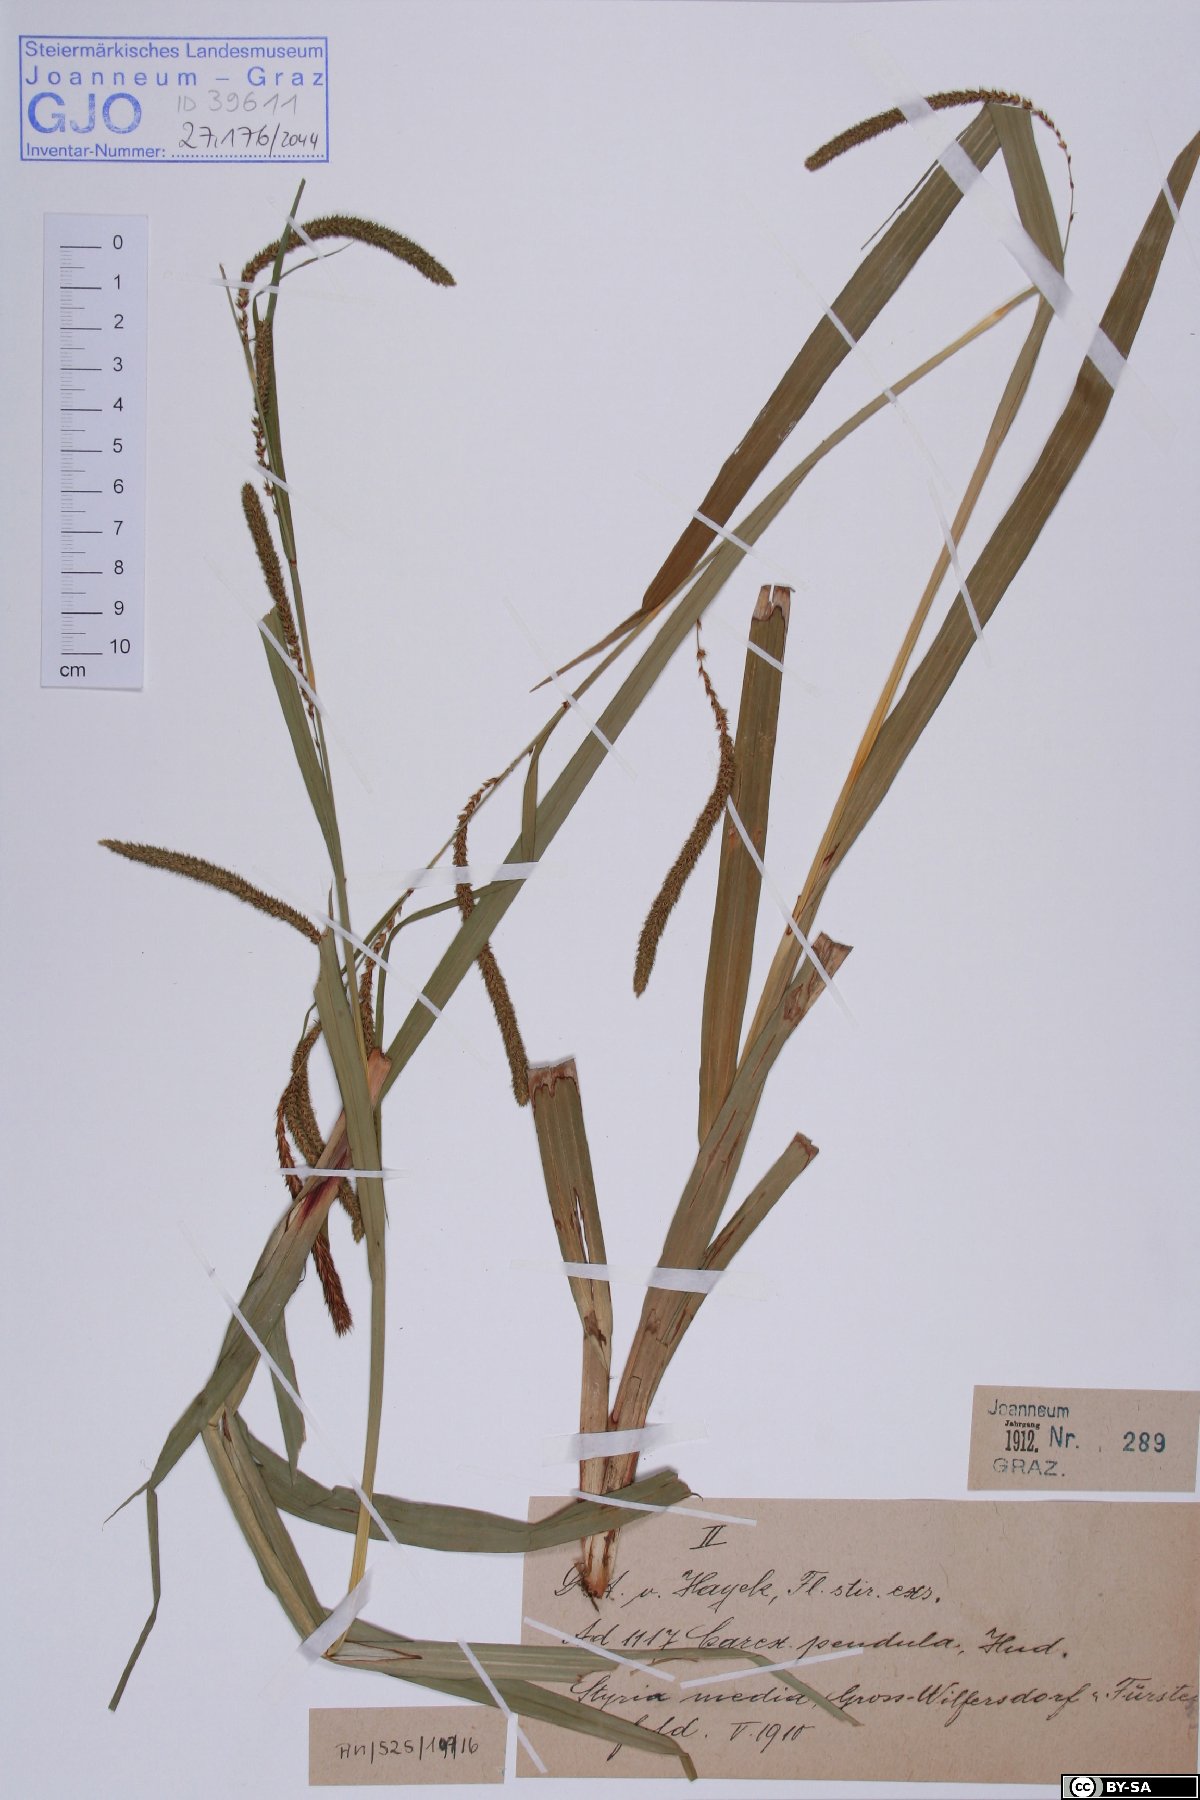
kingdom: Plantae
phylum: Tracheophyta
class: Liliopsida
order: Poales
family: Cyperaceae
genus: Carex
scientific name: Carex pendula
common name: Pendulous sedge
